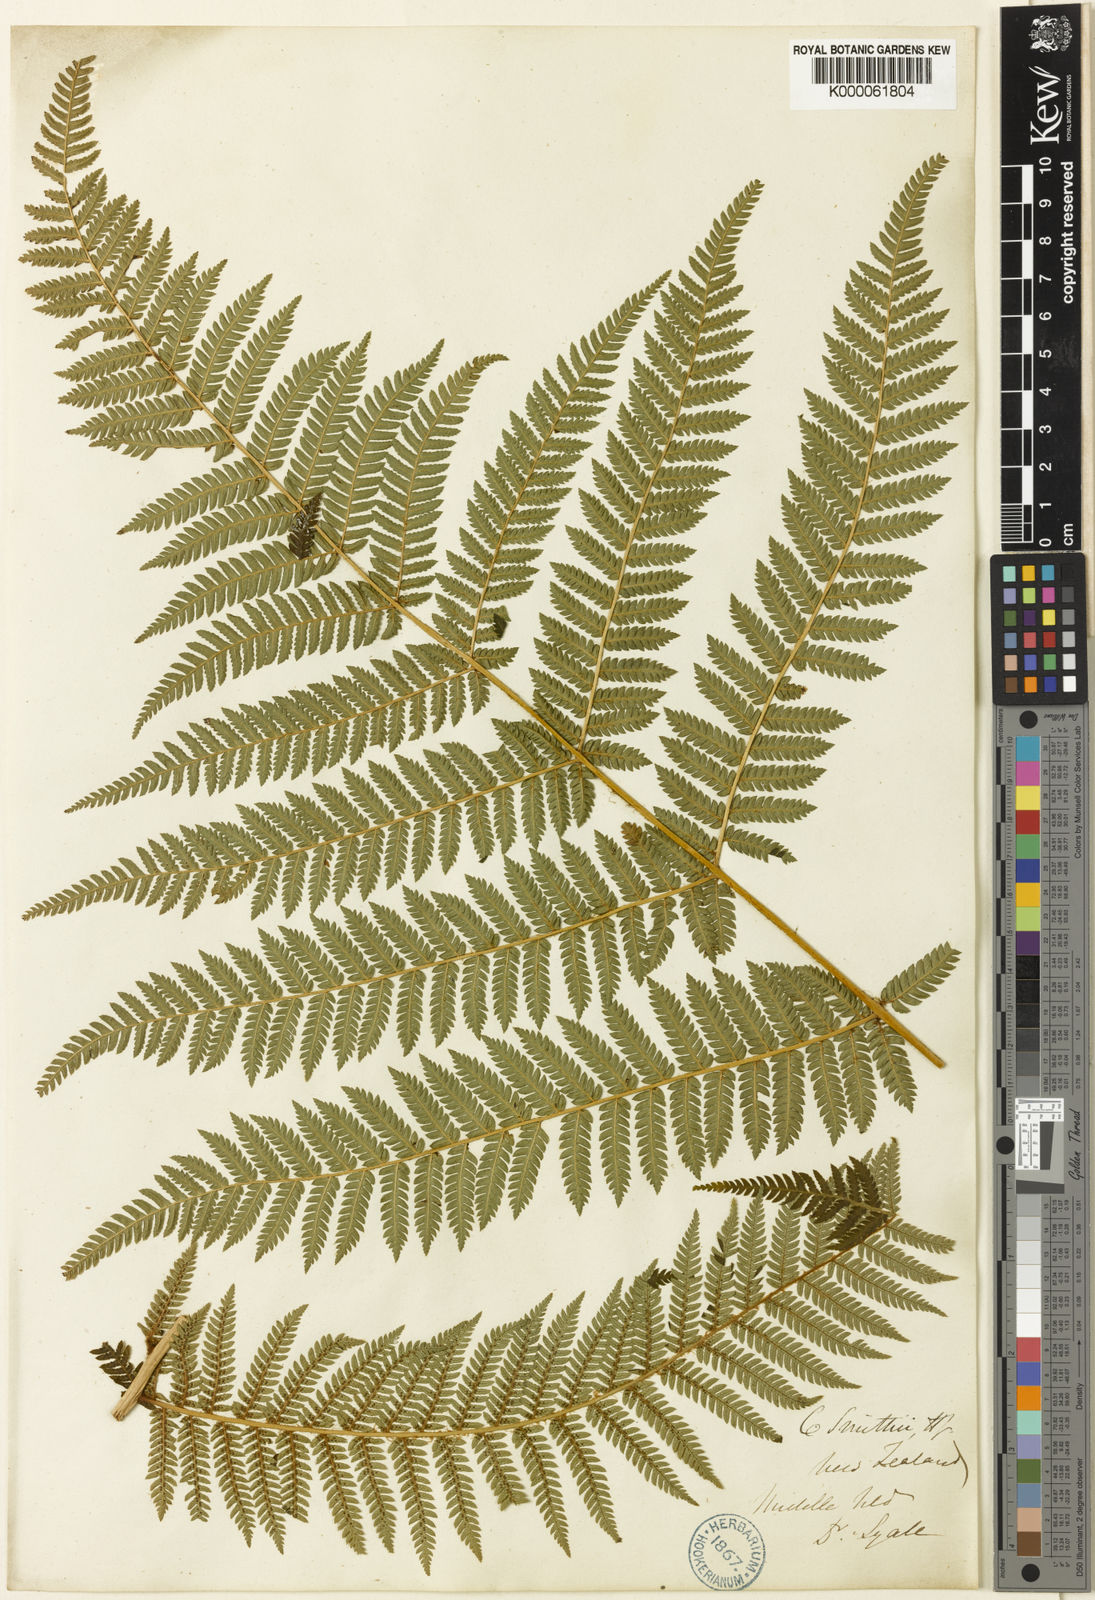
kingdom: Plantae
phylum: Tracheophyta
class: Polypodiopsida
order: Cyatheales
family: Cyatheaceae
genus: Alsophila
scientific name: Alsophila smithii
